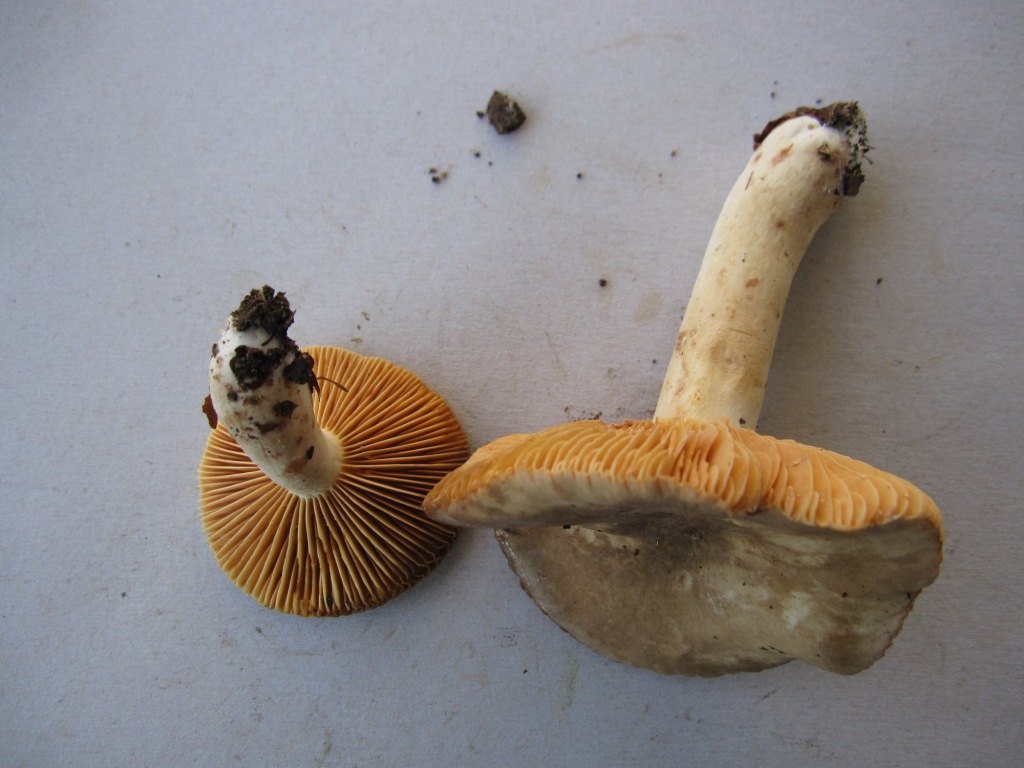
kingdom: Fungi
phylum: Basidiomycota
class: Agaricomycetes
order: Russulales
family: Russulaceae
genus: Lactarius
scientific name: Lactarius ruginosus
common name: gråbrun mælkehat
